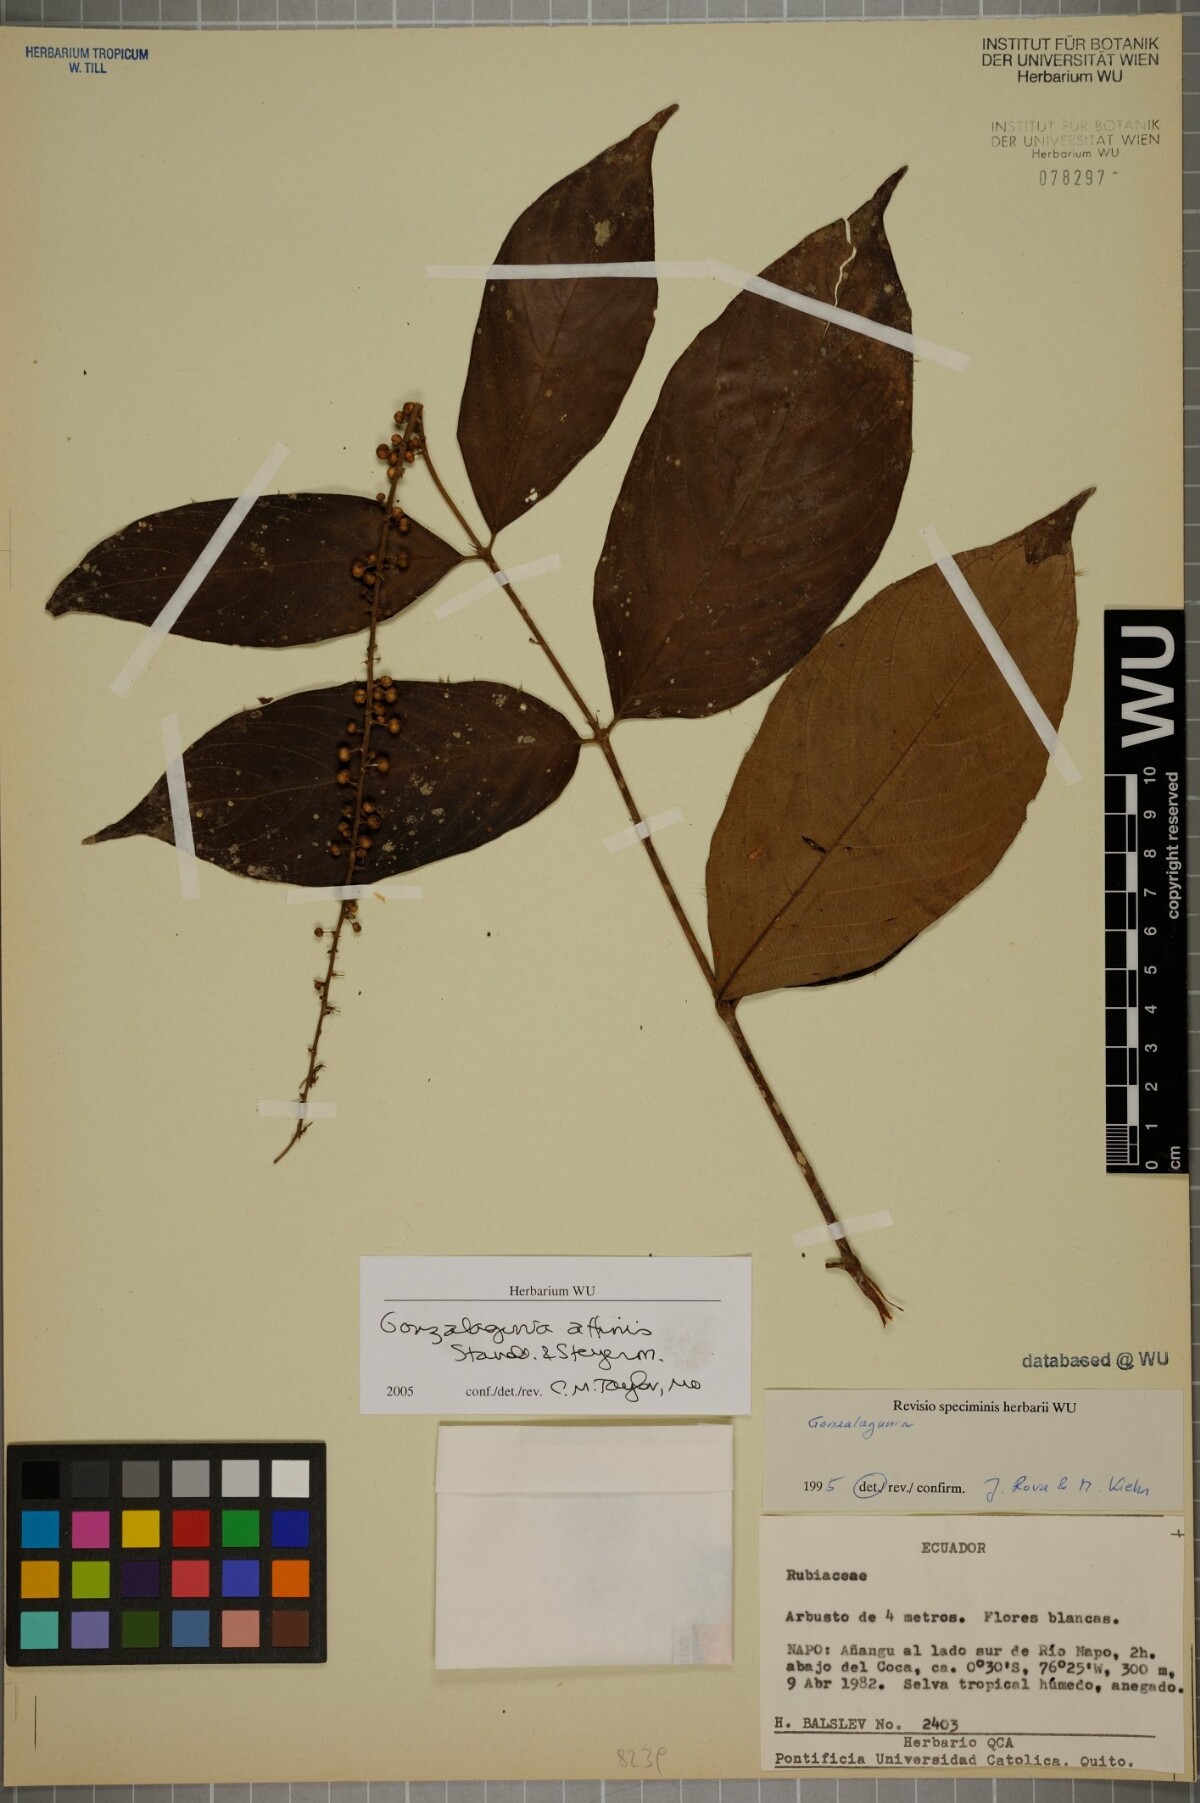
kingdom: Plantae
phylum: Tracheophyta
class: Magnoliopsida
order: Gentianales
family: Rubiaceae
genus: Gonzalagunia
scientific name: Gonzalagunia affinis
